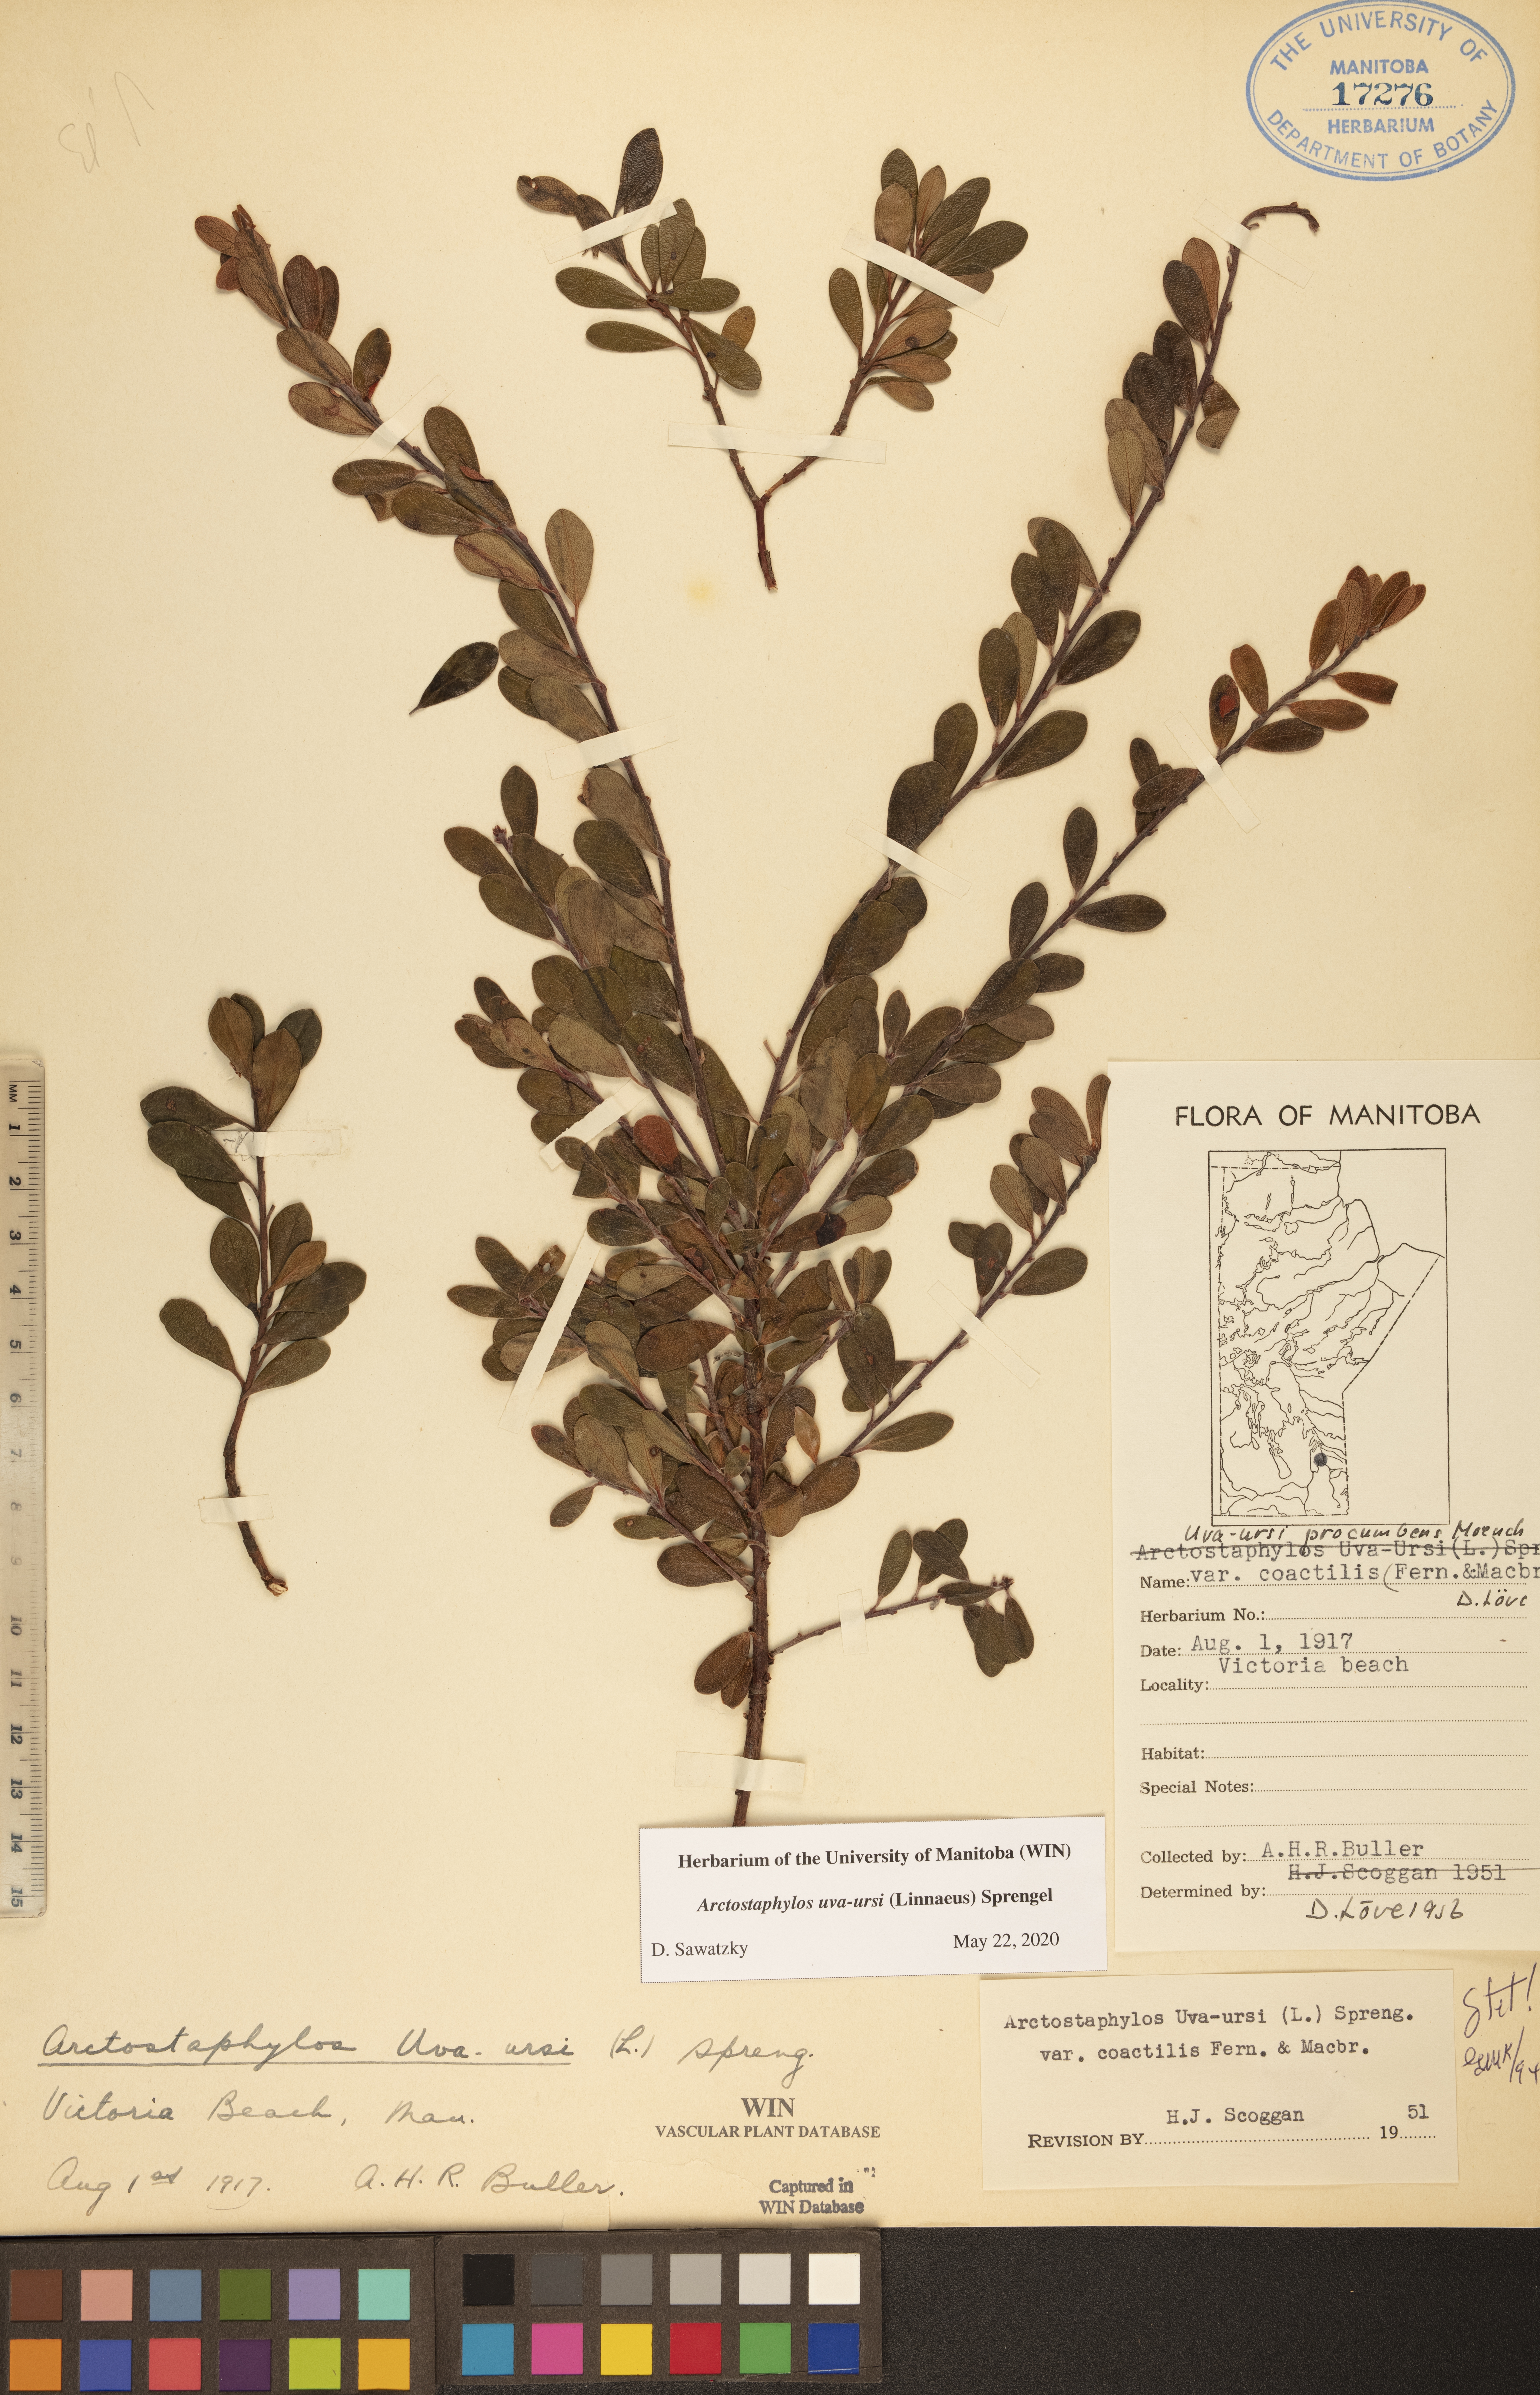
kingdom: Plantae
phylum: Tracheophyta
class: Magnoliopsida
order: Ericales
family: Ericaceae
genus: Arctostaphylos
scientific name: Arctostaphylos uva-ursi
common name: Bearberry
